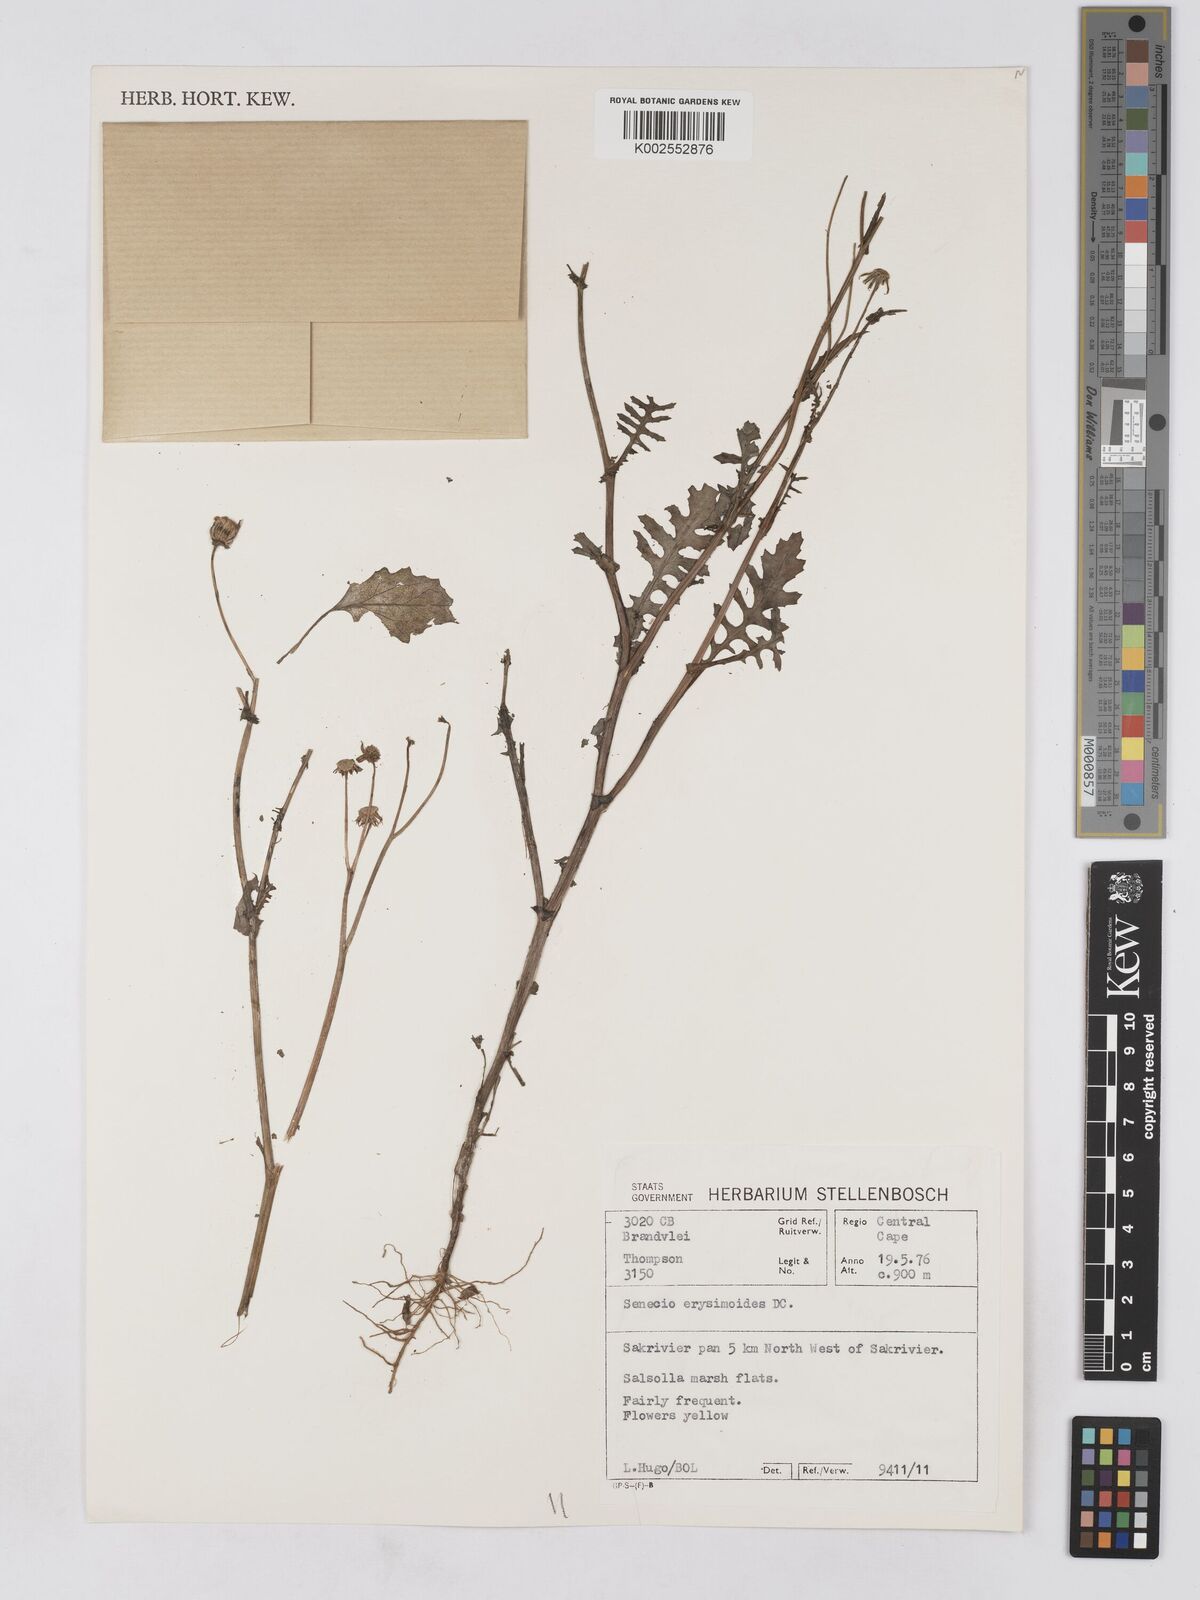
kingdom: Plantae
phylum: Tracheophyta
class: Magnoliopsida
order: Asterales
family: Asteraceae
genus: Senecio
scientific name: Senecio erysimoides
